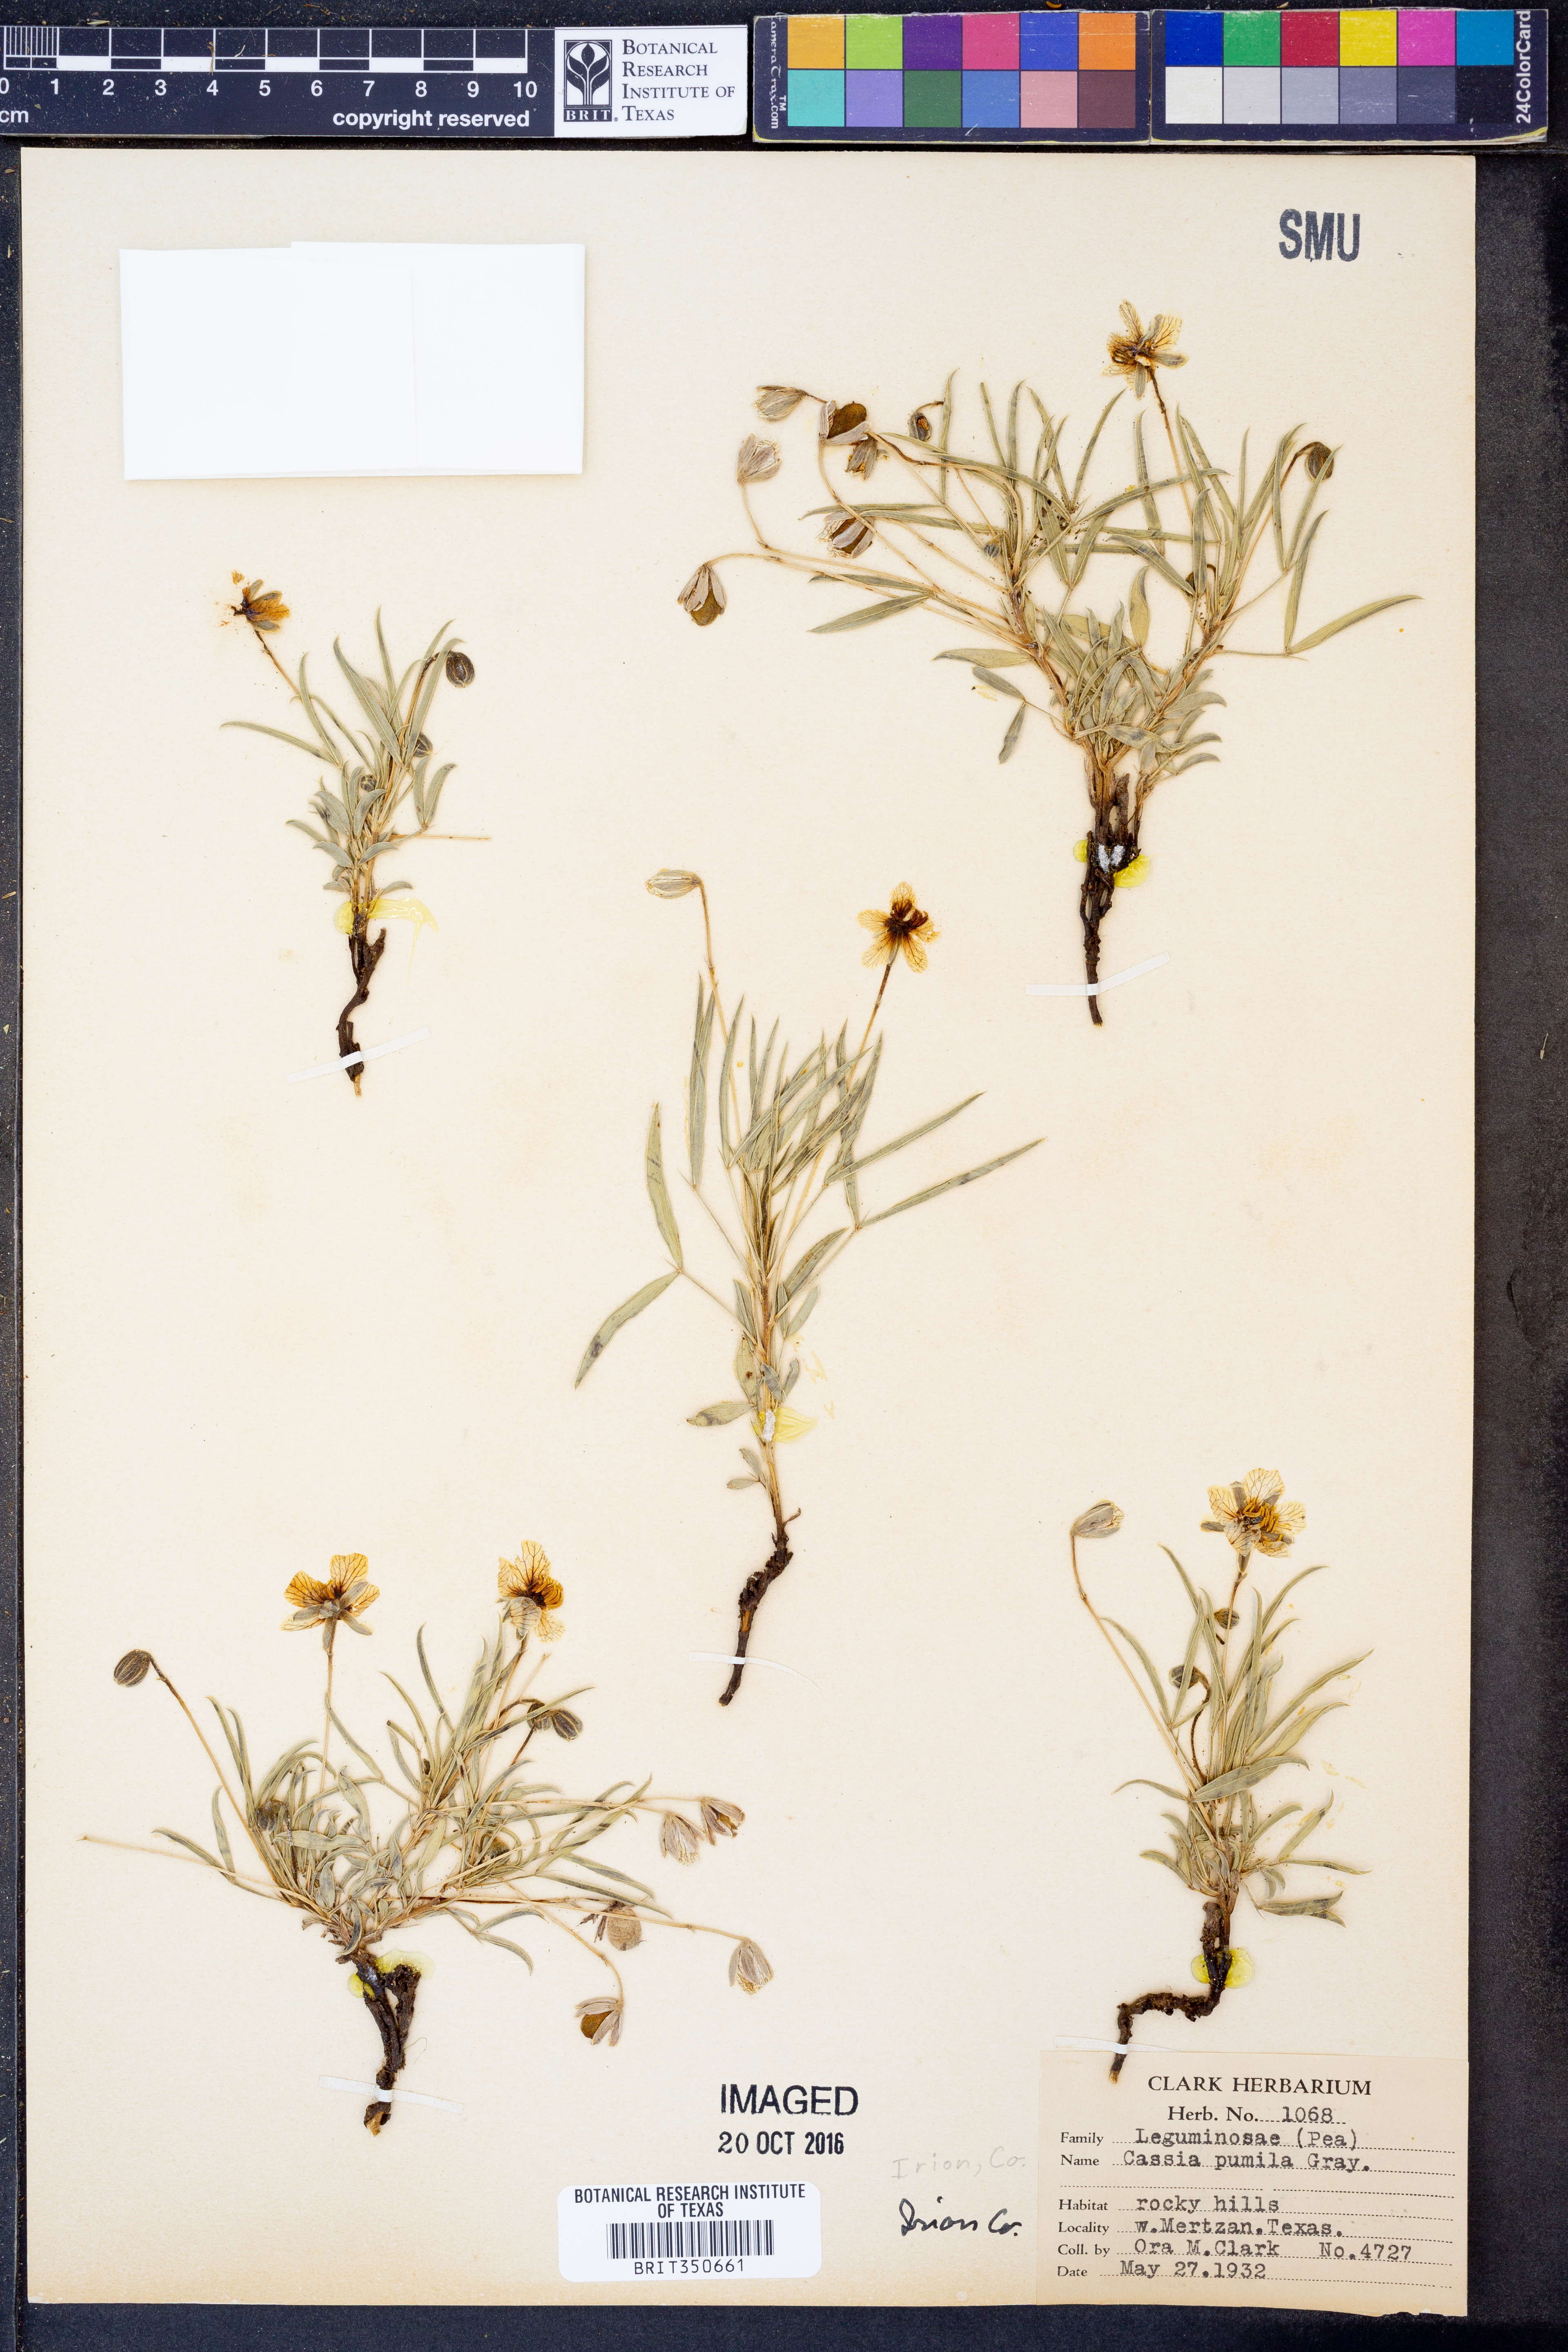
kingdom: Plantae
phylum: Tracheophyta
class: Magnoliopsida
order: Fabales
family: Fabaceae
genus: Chamaecrista
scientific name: Chamaecrista pumila
